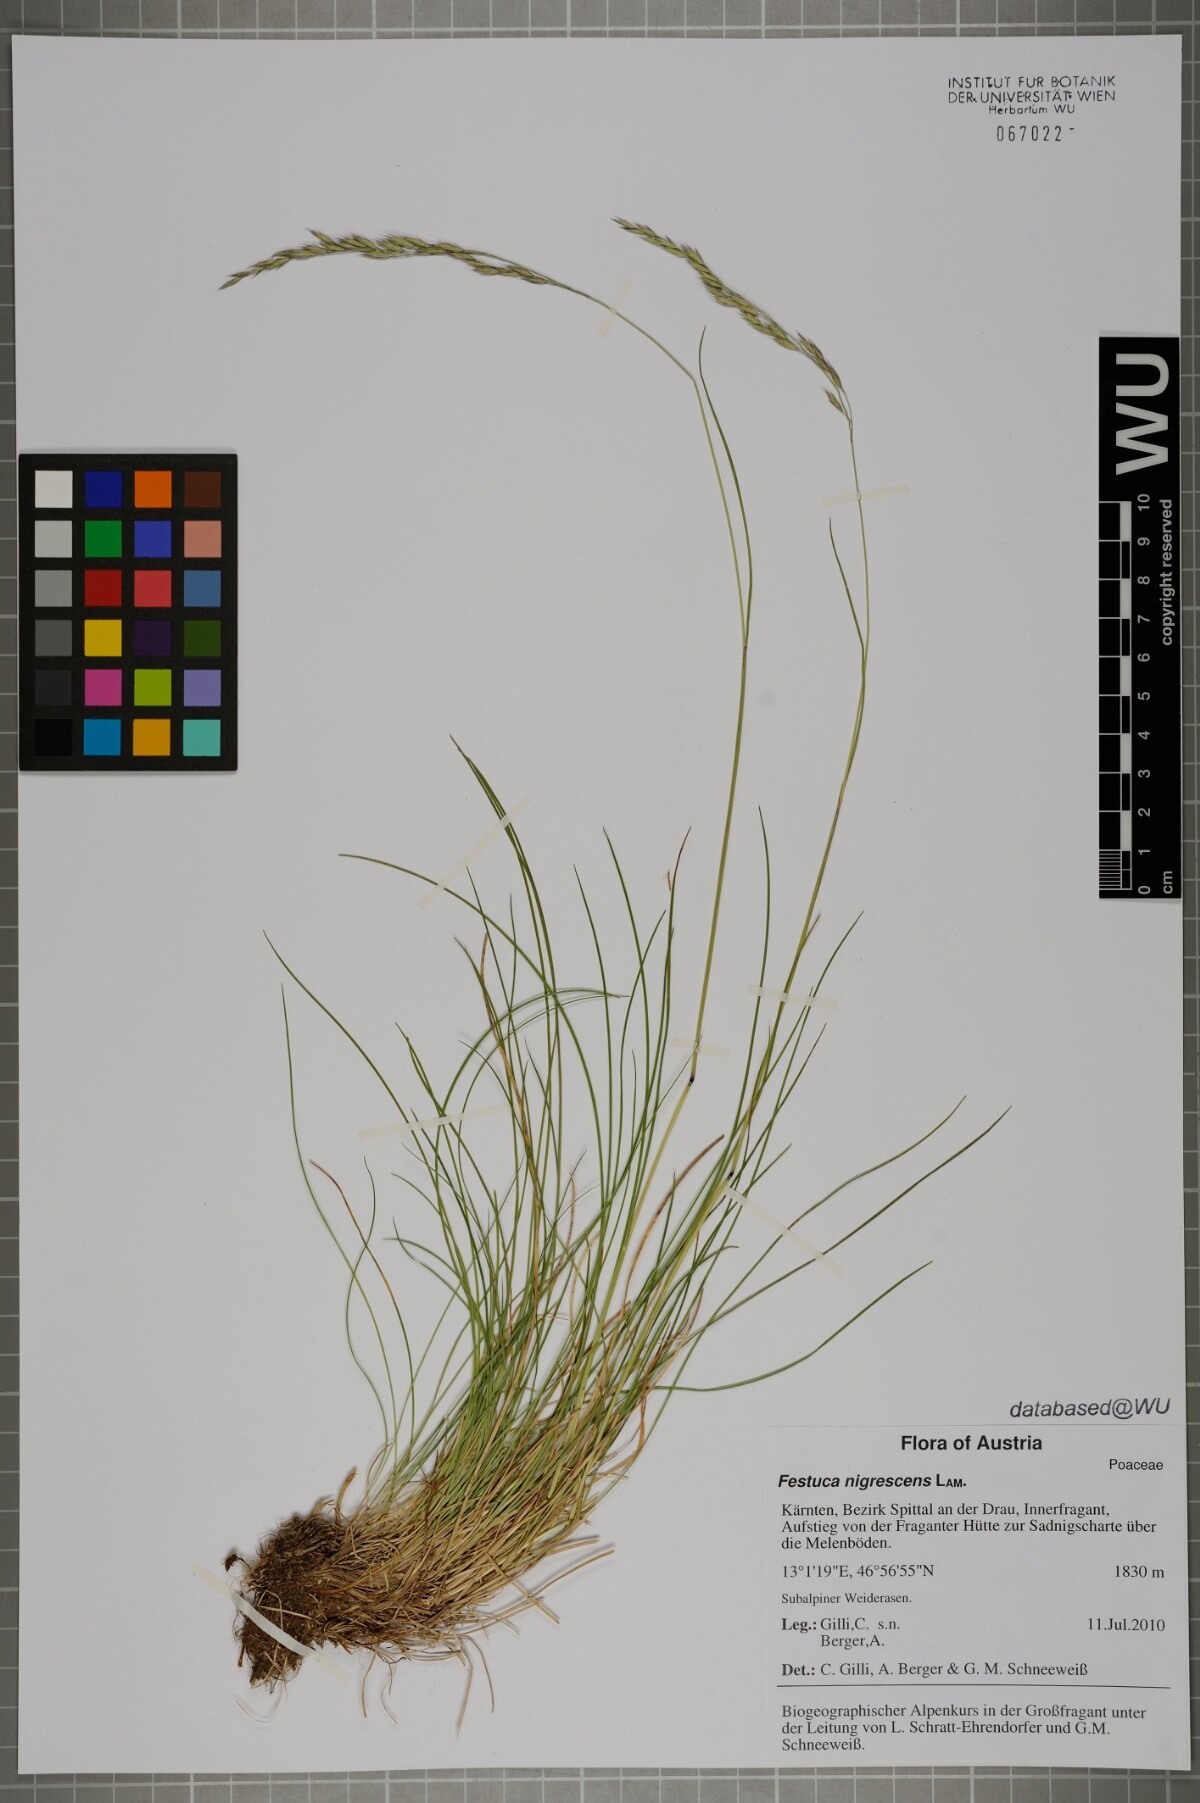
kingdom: Plantae
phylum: Tracheophyta
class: Liliopsida
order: Poales
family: Poaceae
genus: Festuca
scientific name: Festuca nigrescens
